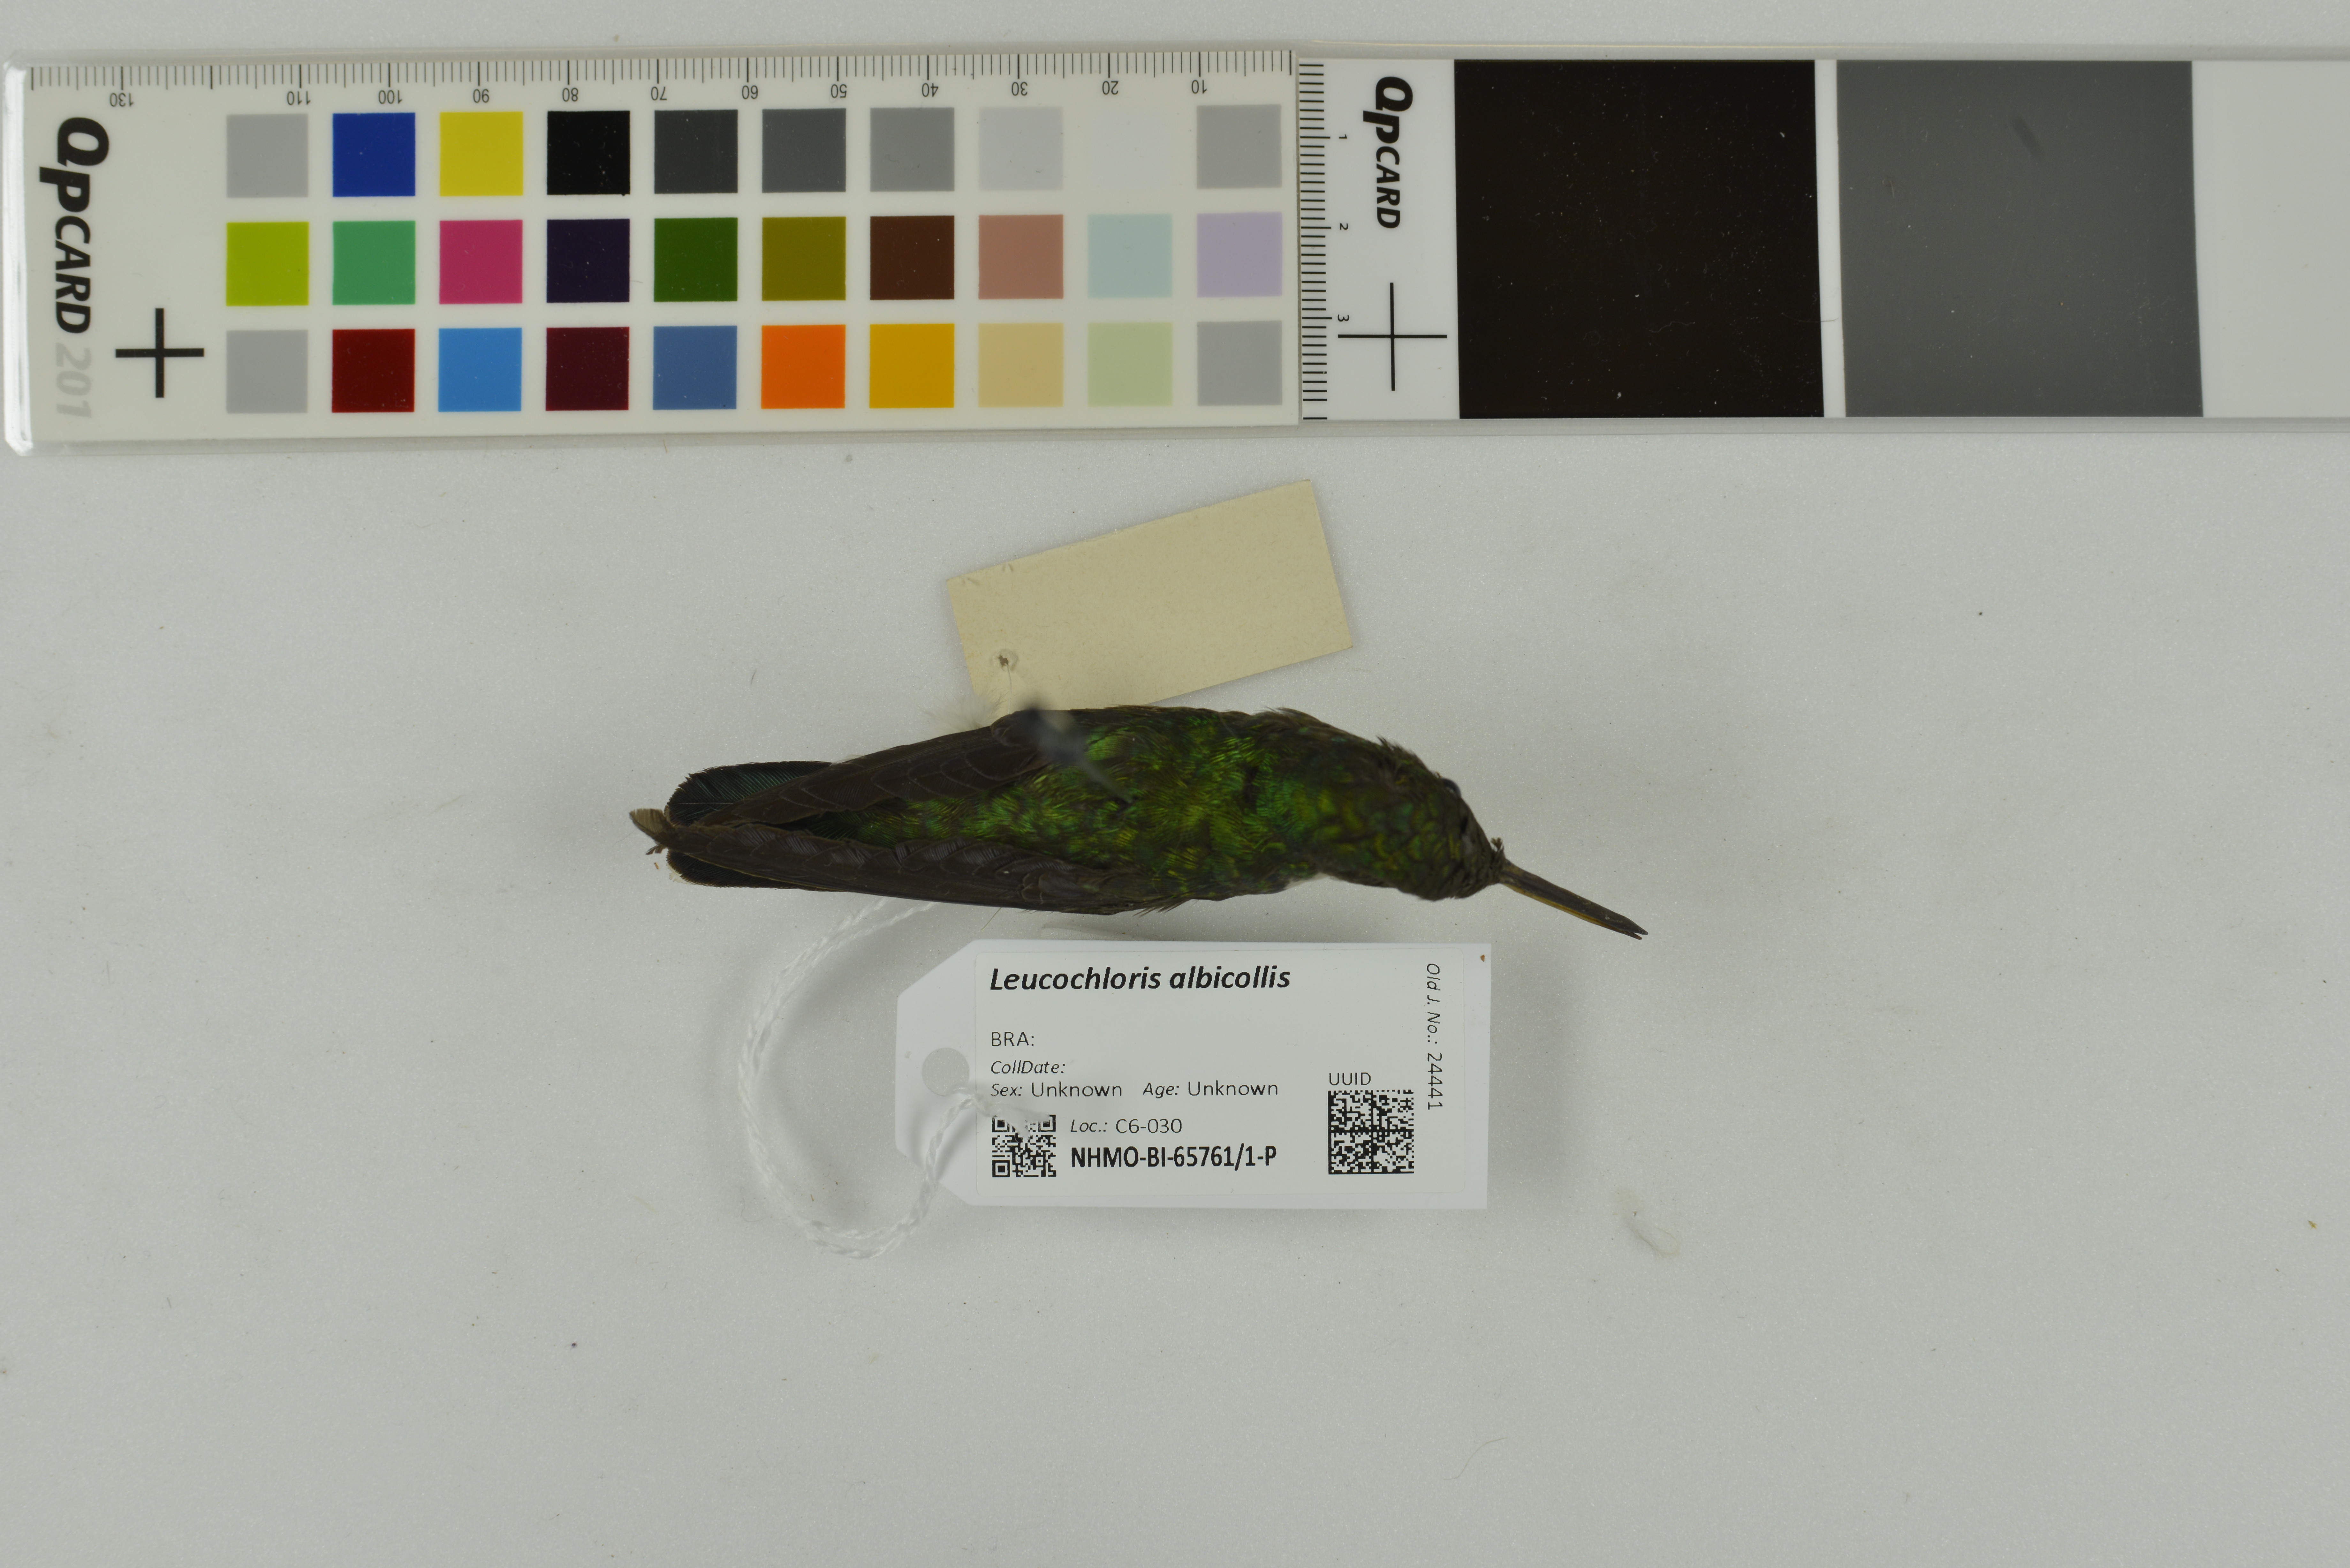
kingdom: Animalia
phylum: Chordata
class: Aves
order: Apodiformes
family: Trochilidae
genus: Leucochloris
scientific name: Leucochloris albicollis
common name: White-throated hummingbird
